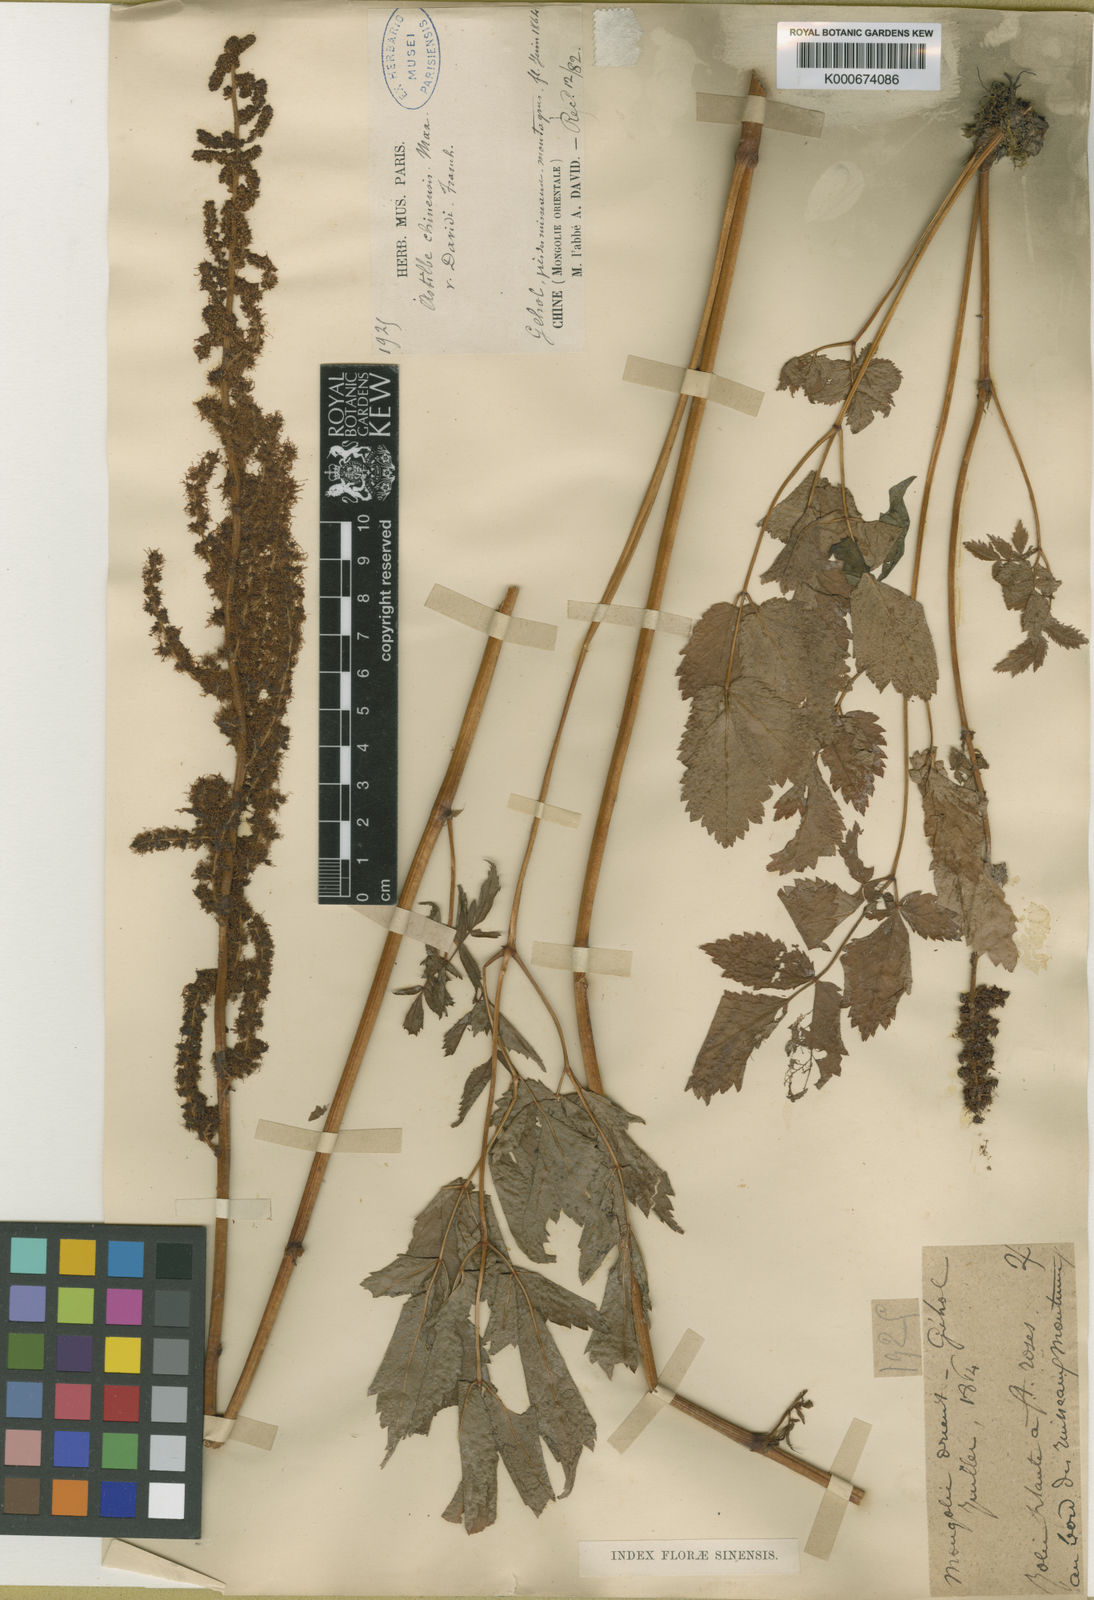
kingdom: Plantae
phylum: Tracheophyta
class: Magnoliopsida
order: Saxifragales
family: Saxifragaceae
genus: Astilbe
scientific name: Astilbe rubra
